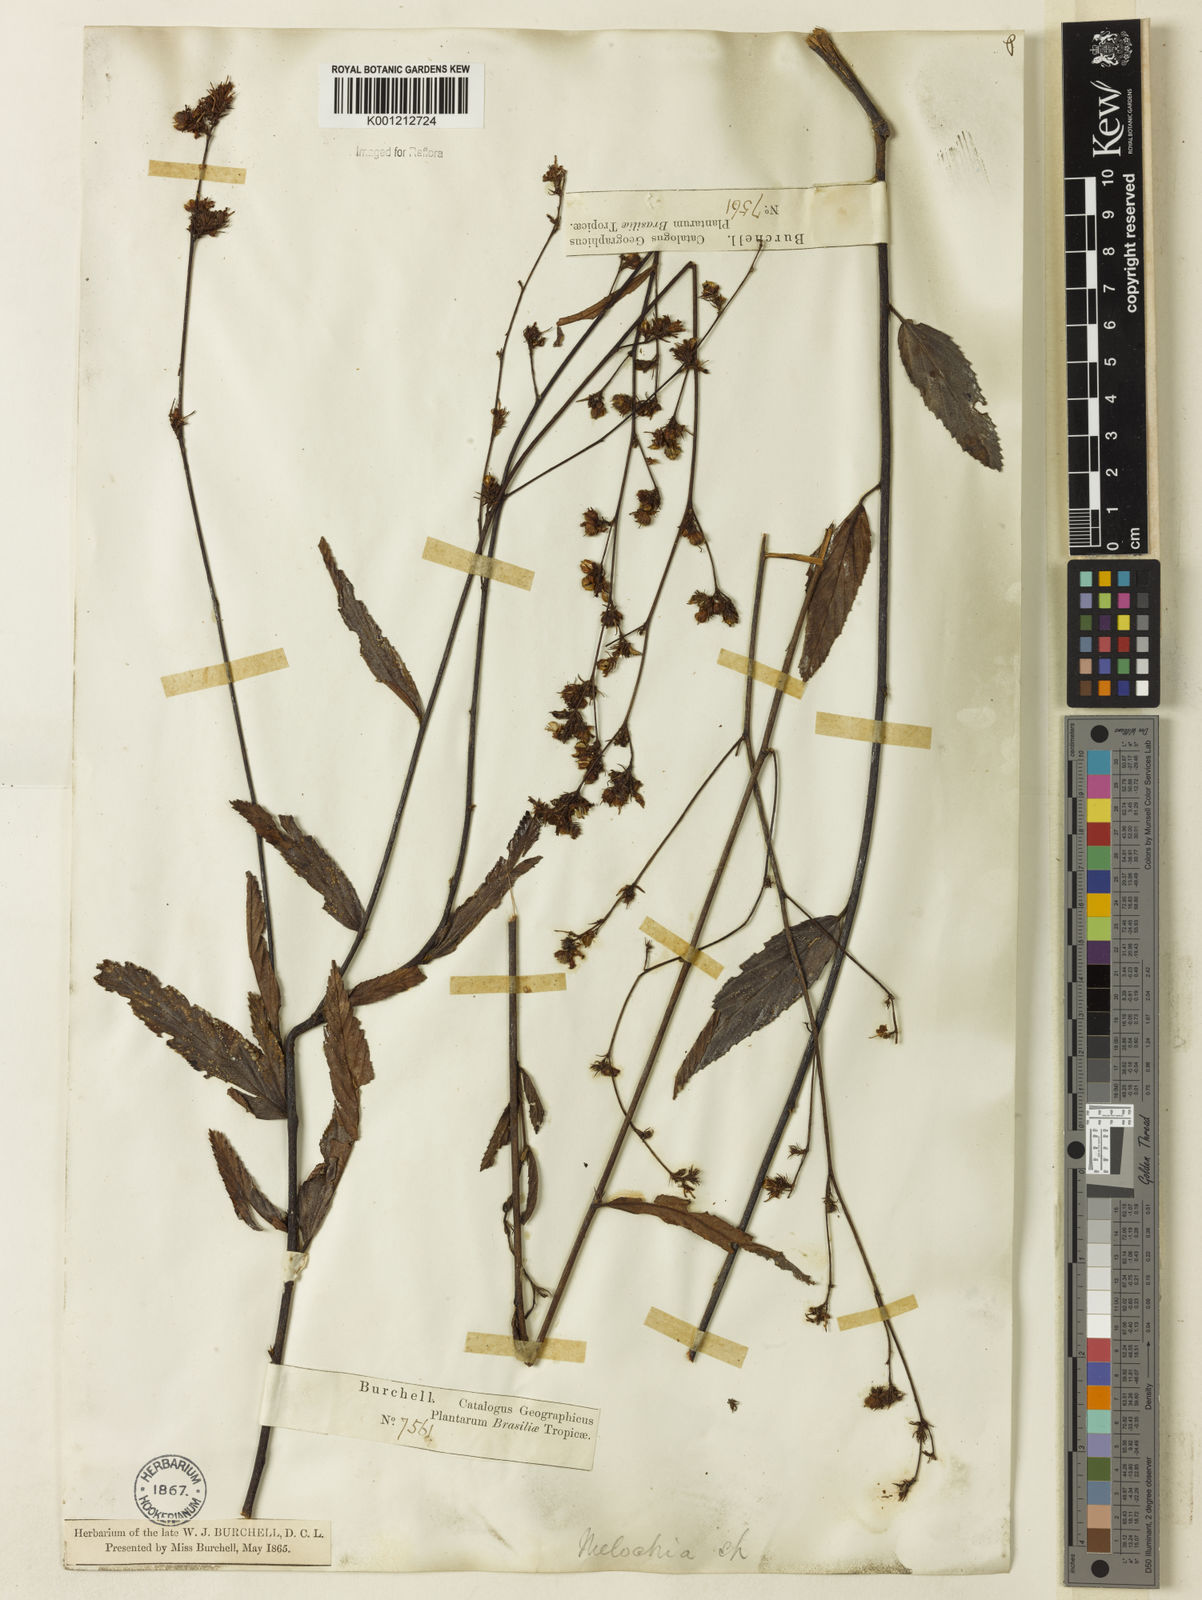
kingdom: Plantae
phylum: Tracheophyta
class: Magnoliopsida
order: Malvales
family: Malvaceae
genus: Melochia
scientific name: Melochia simplex
